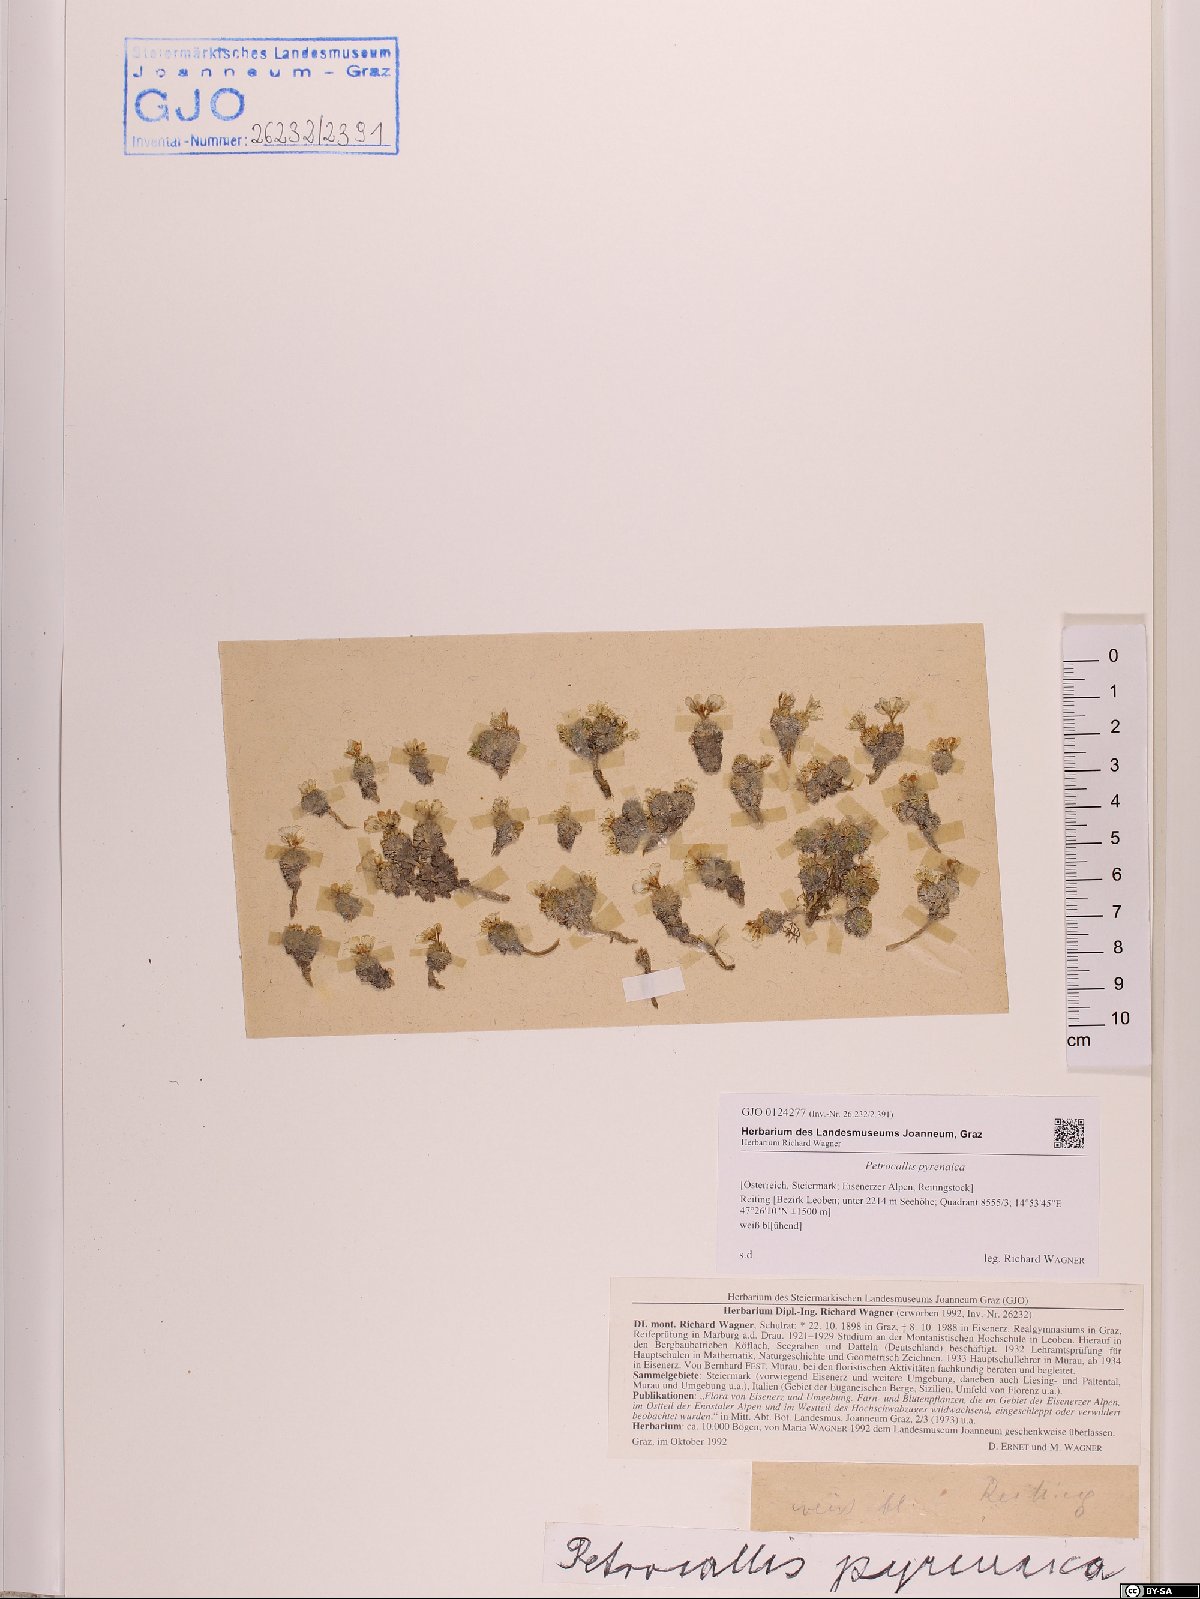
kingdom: Plantae
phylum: Tracheophyta
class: Magnoliopsida
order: Brassicales
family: Brassicaceae
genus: Petrocallis
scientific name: Petrocallis pyrenaica
